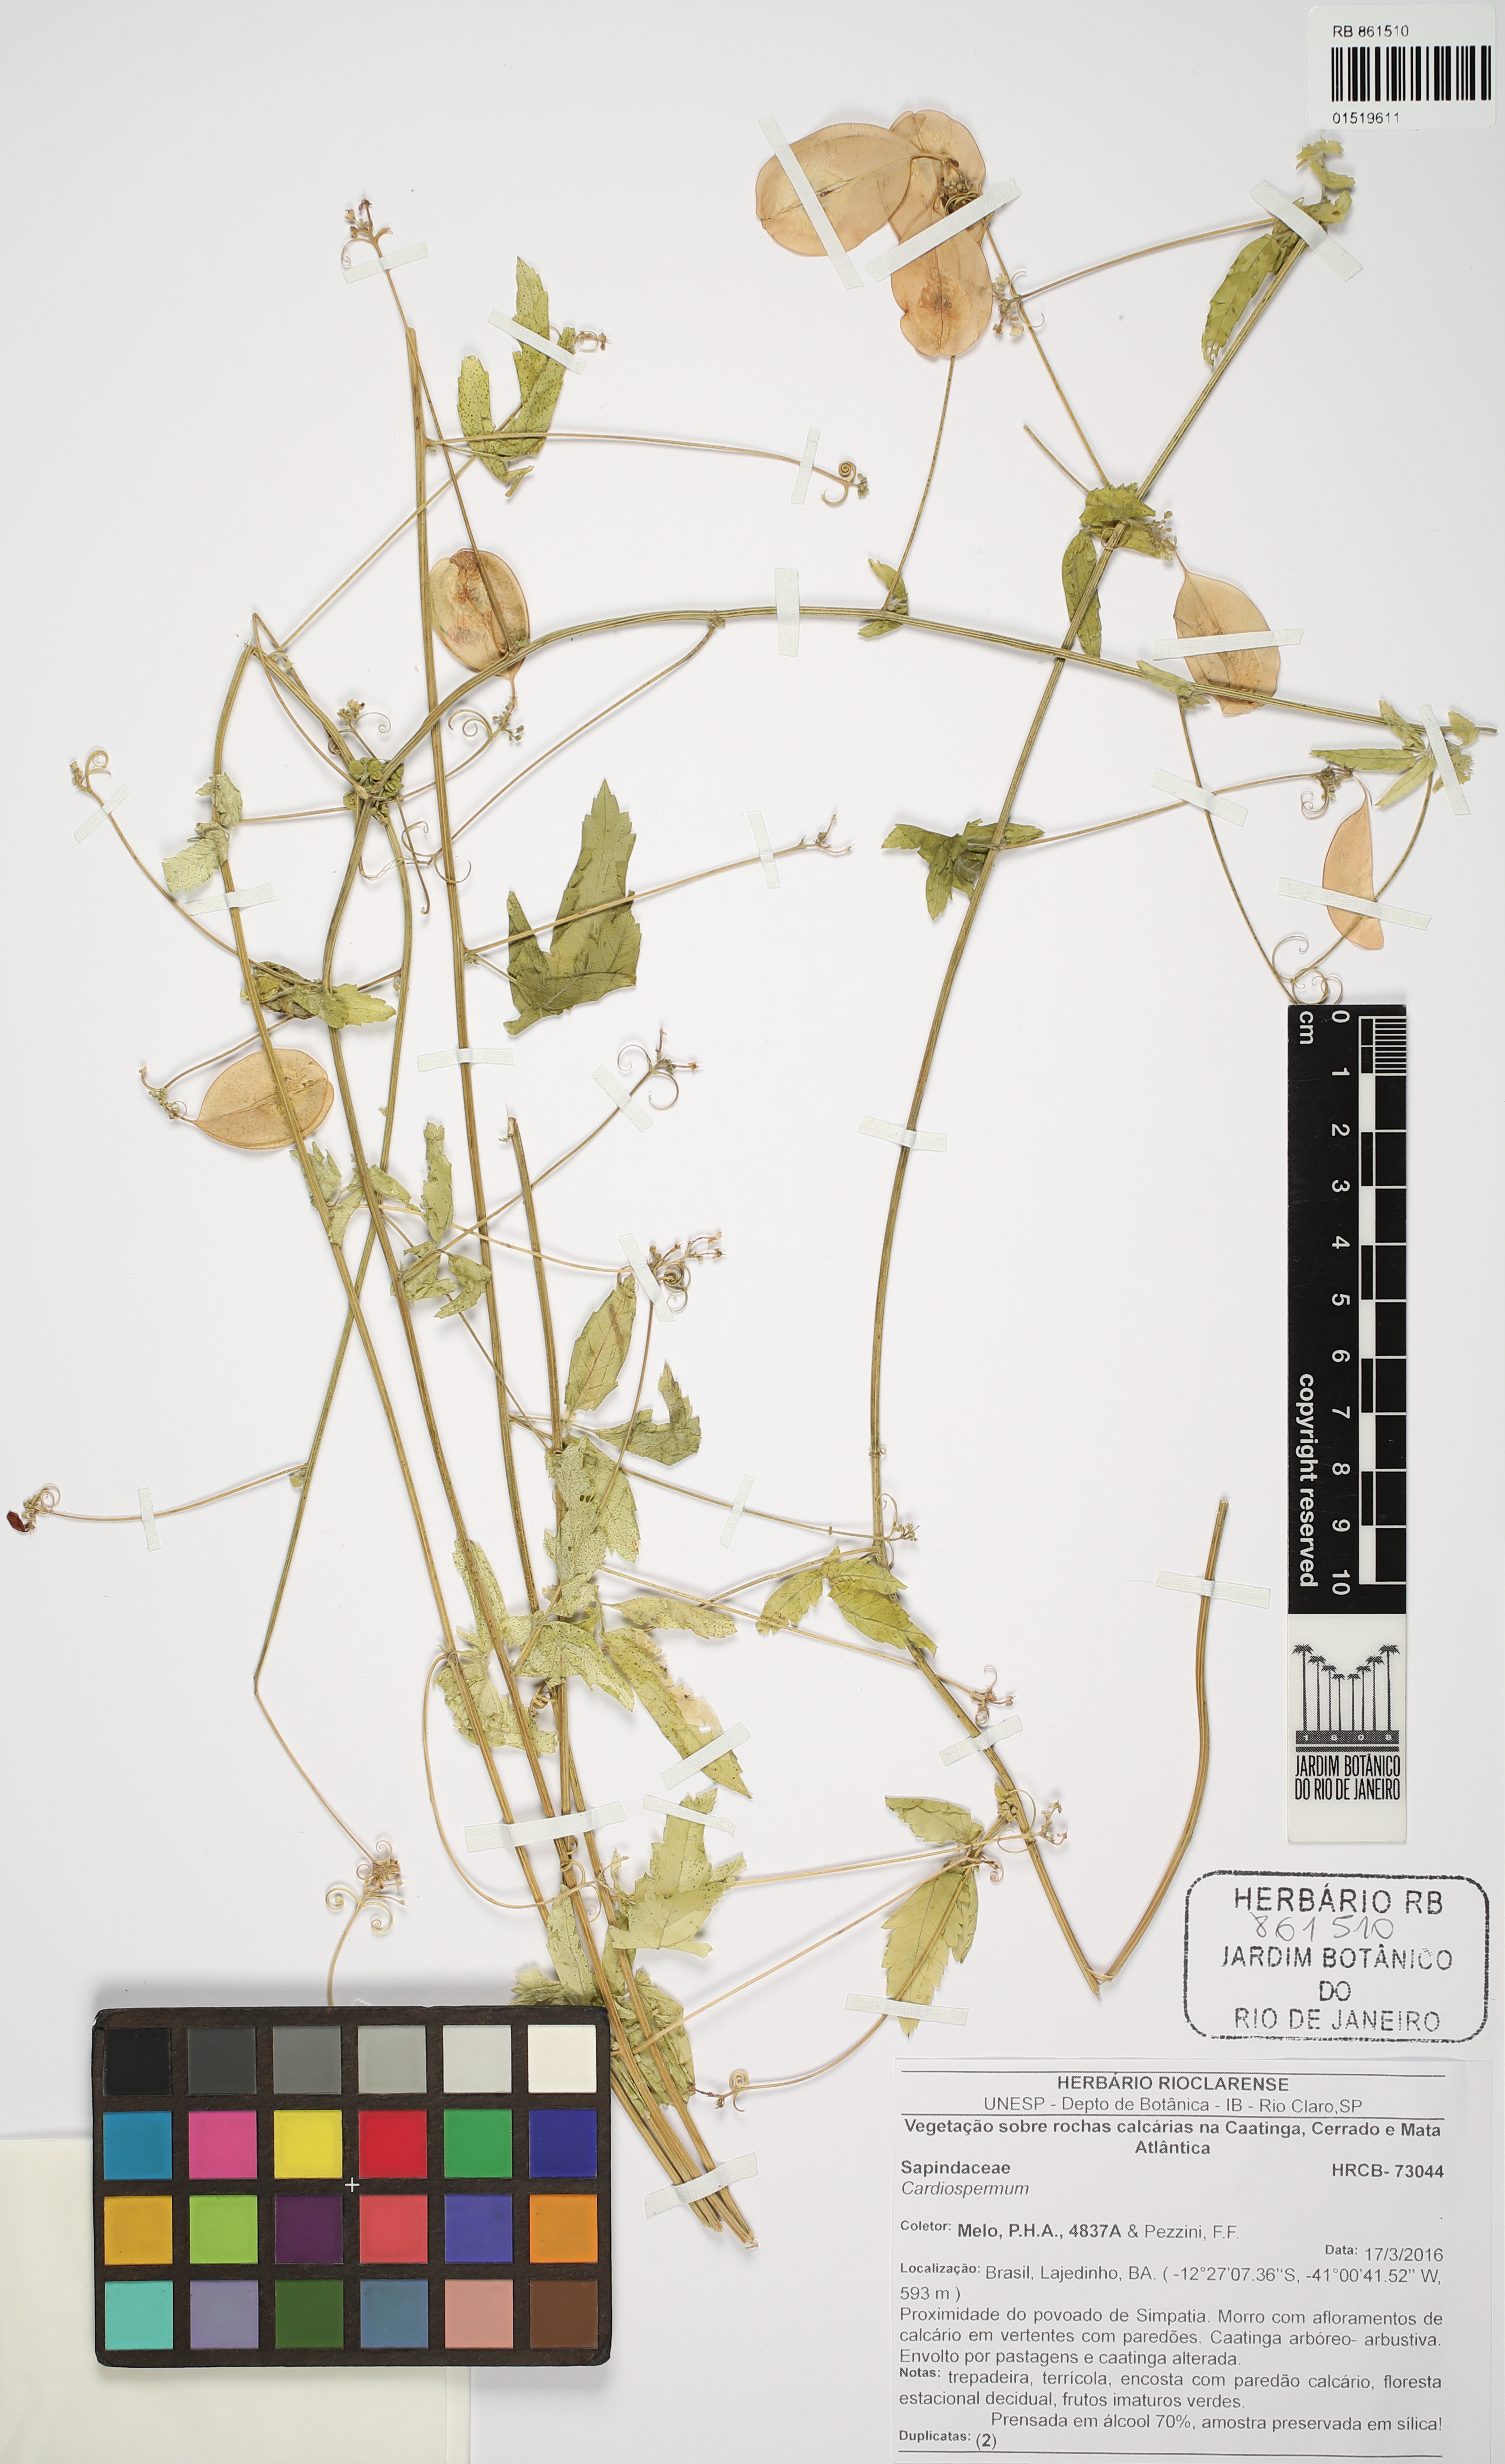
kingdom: Plantae
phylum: Tracheophyta
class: Magnoliopsida
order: Sapindales
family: Sapindaceae
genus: Cardiospermum
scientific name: Cardiospermum
